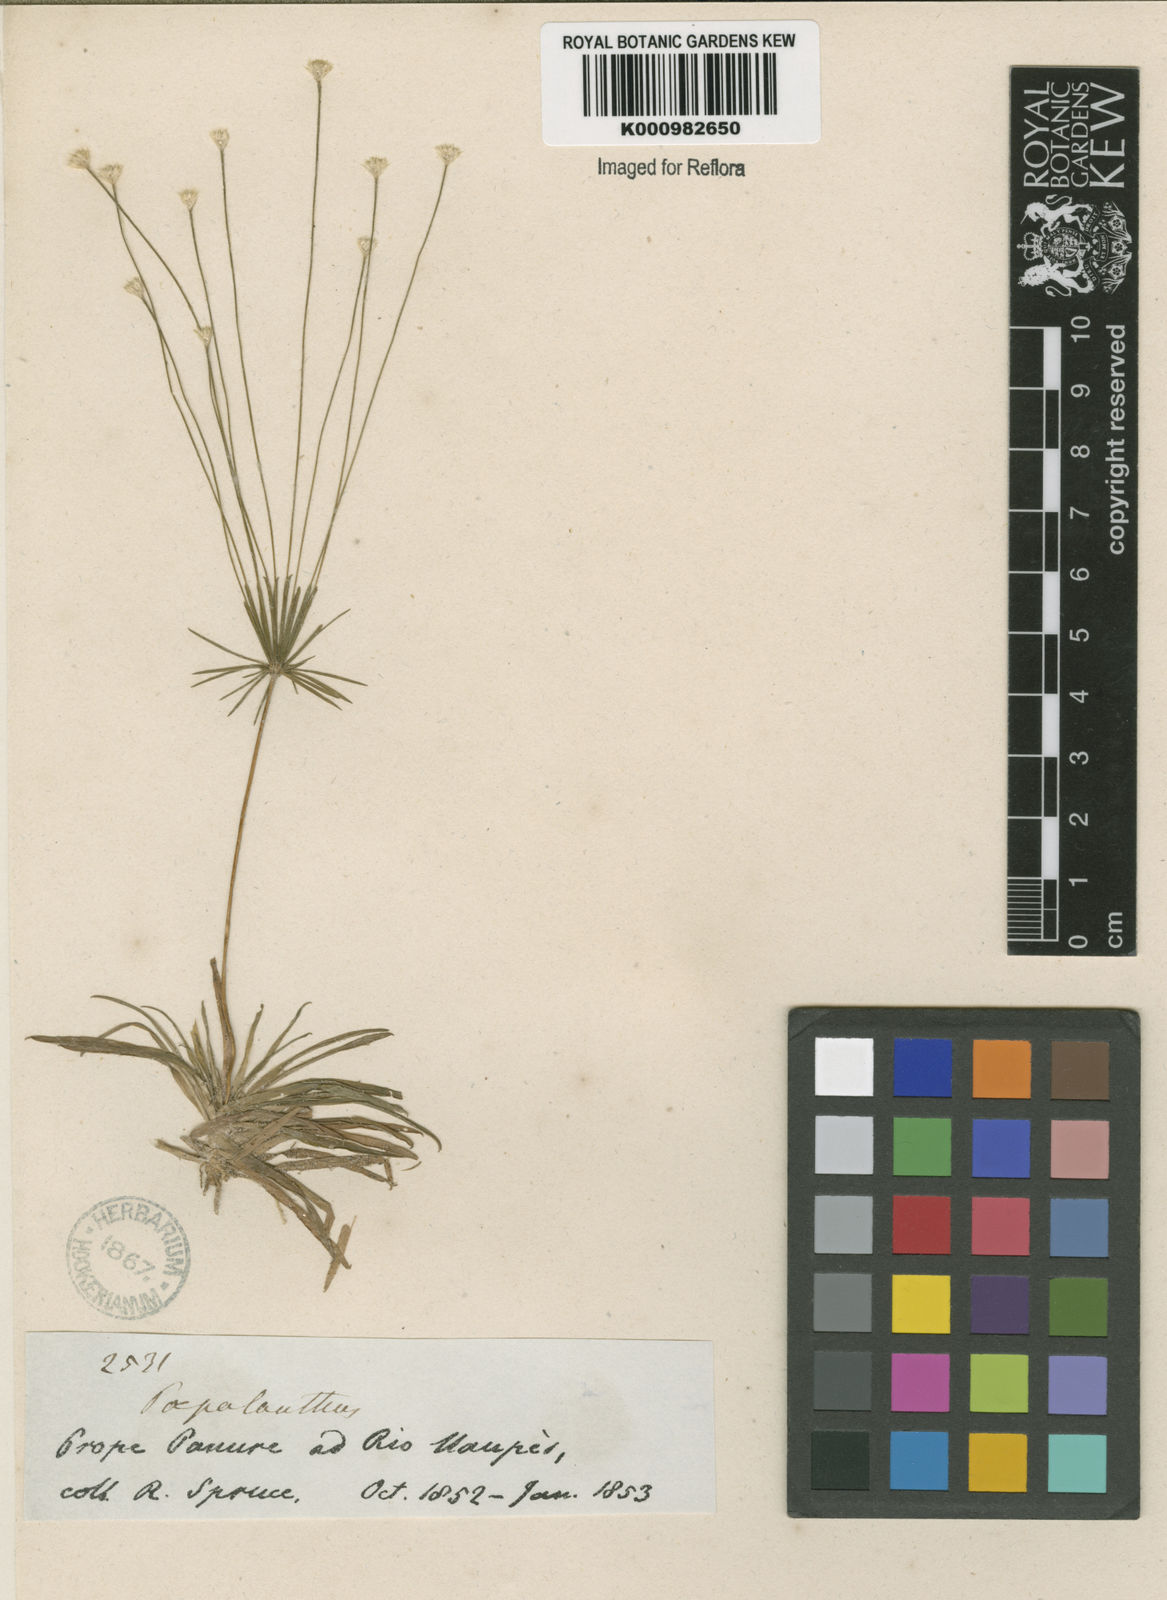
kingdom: Plantae
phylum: Tracheophyta
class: Liliopsida
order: Poales
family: Eriocaulaceae
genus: Syngonanthus
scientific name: Syngonanthus umbellatus
